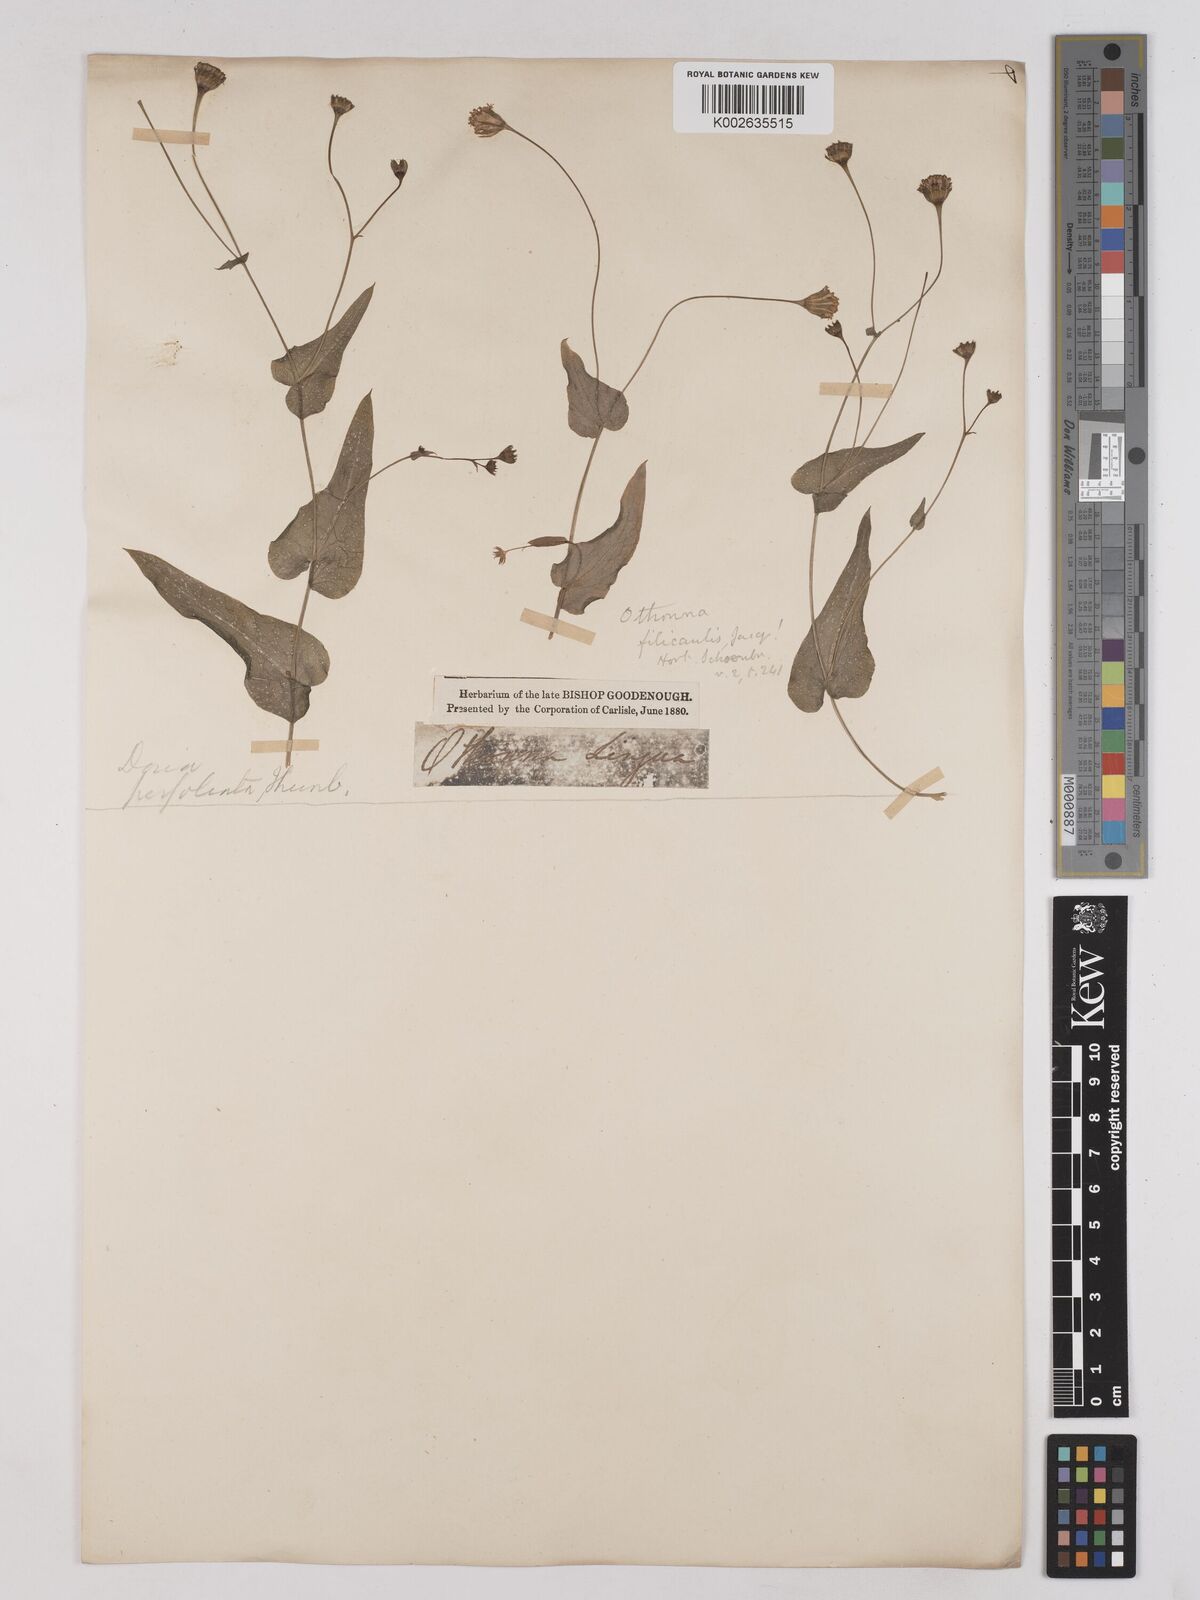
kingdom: Plantae
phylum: Tracheophyta
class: Magnoliopsida
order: Asterales
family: Asteraceae
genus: Othonna
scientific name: Othonna perfoliata
